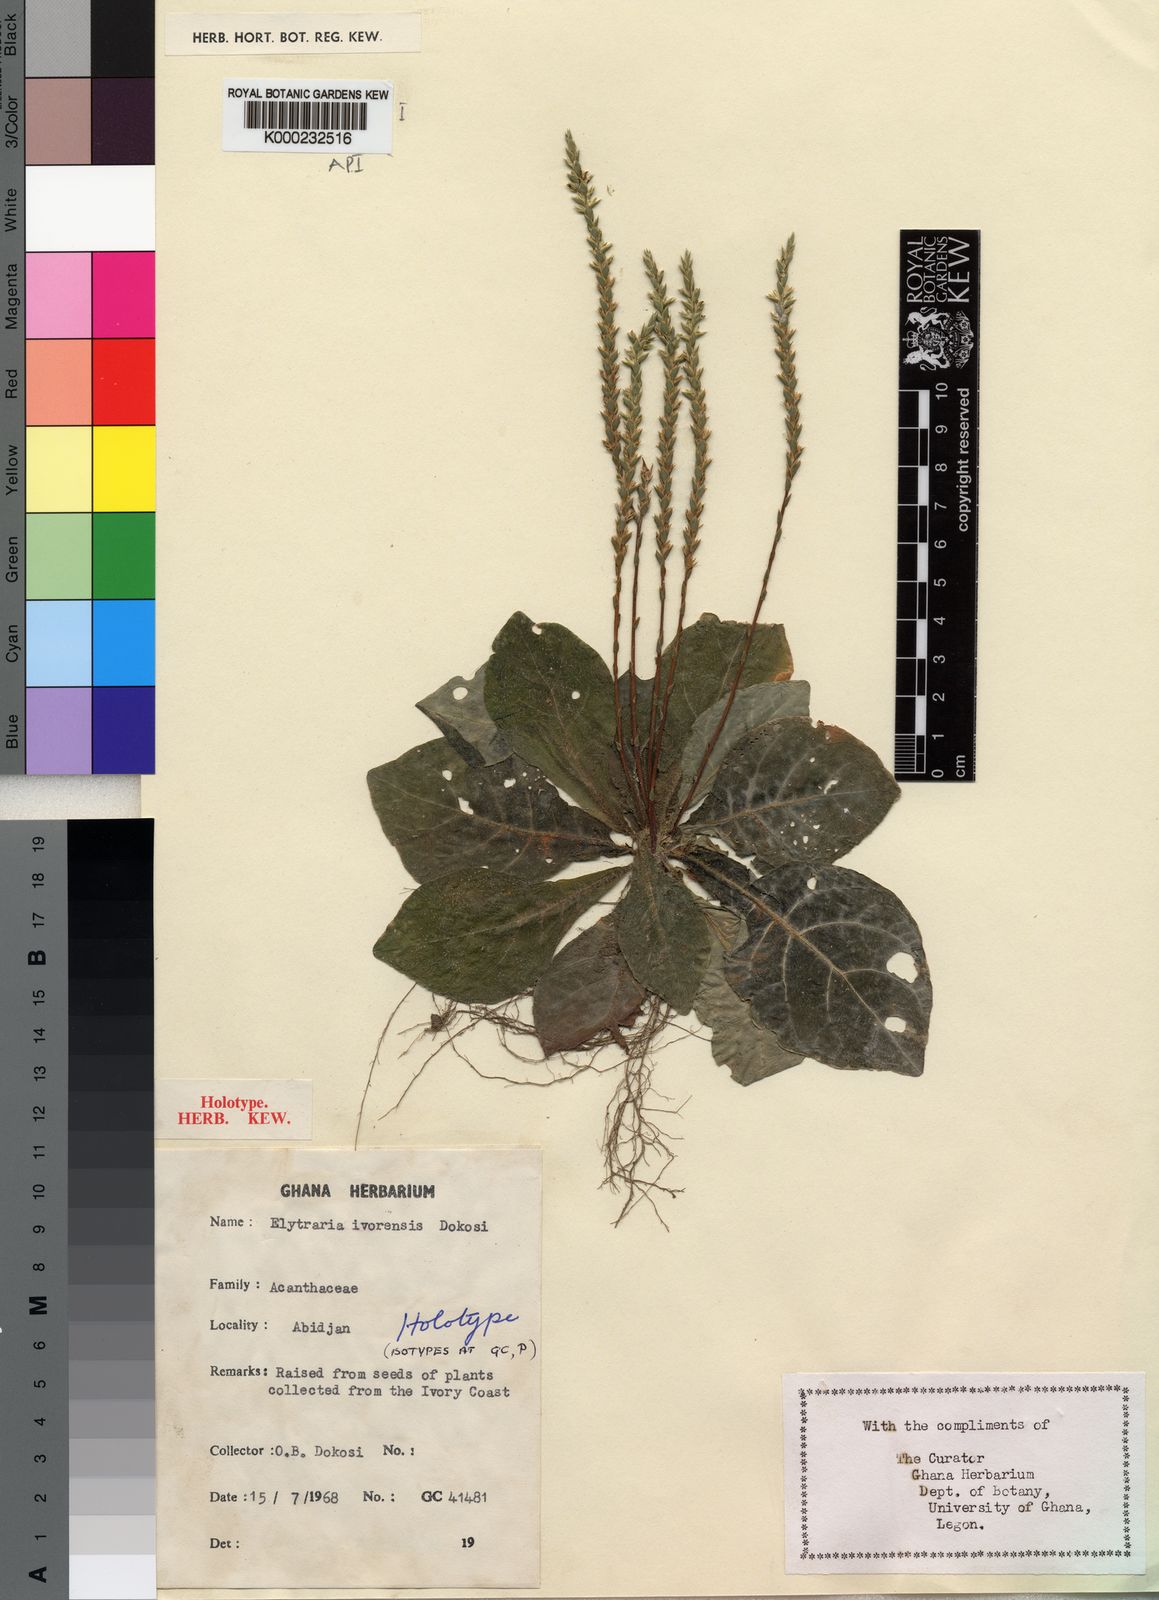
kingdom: Plantae
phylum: Tracheophyta
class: Magnoliopsida
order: Lamiales
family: Acanthaceae
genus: Elytraria
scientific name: Elytraria ivorensis
